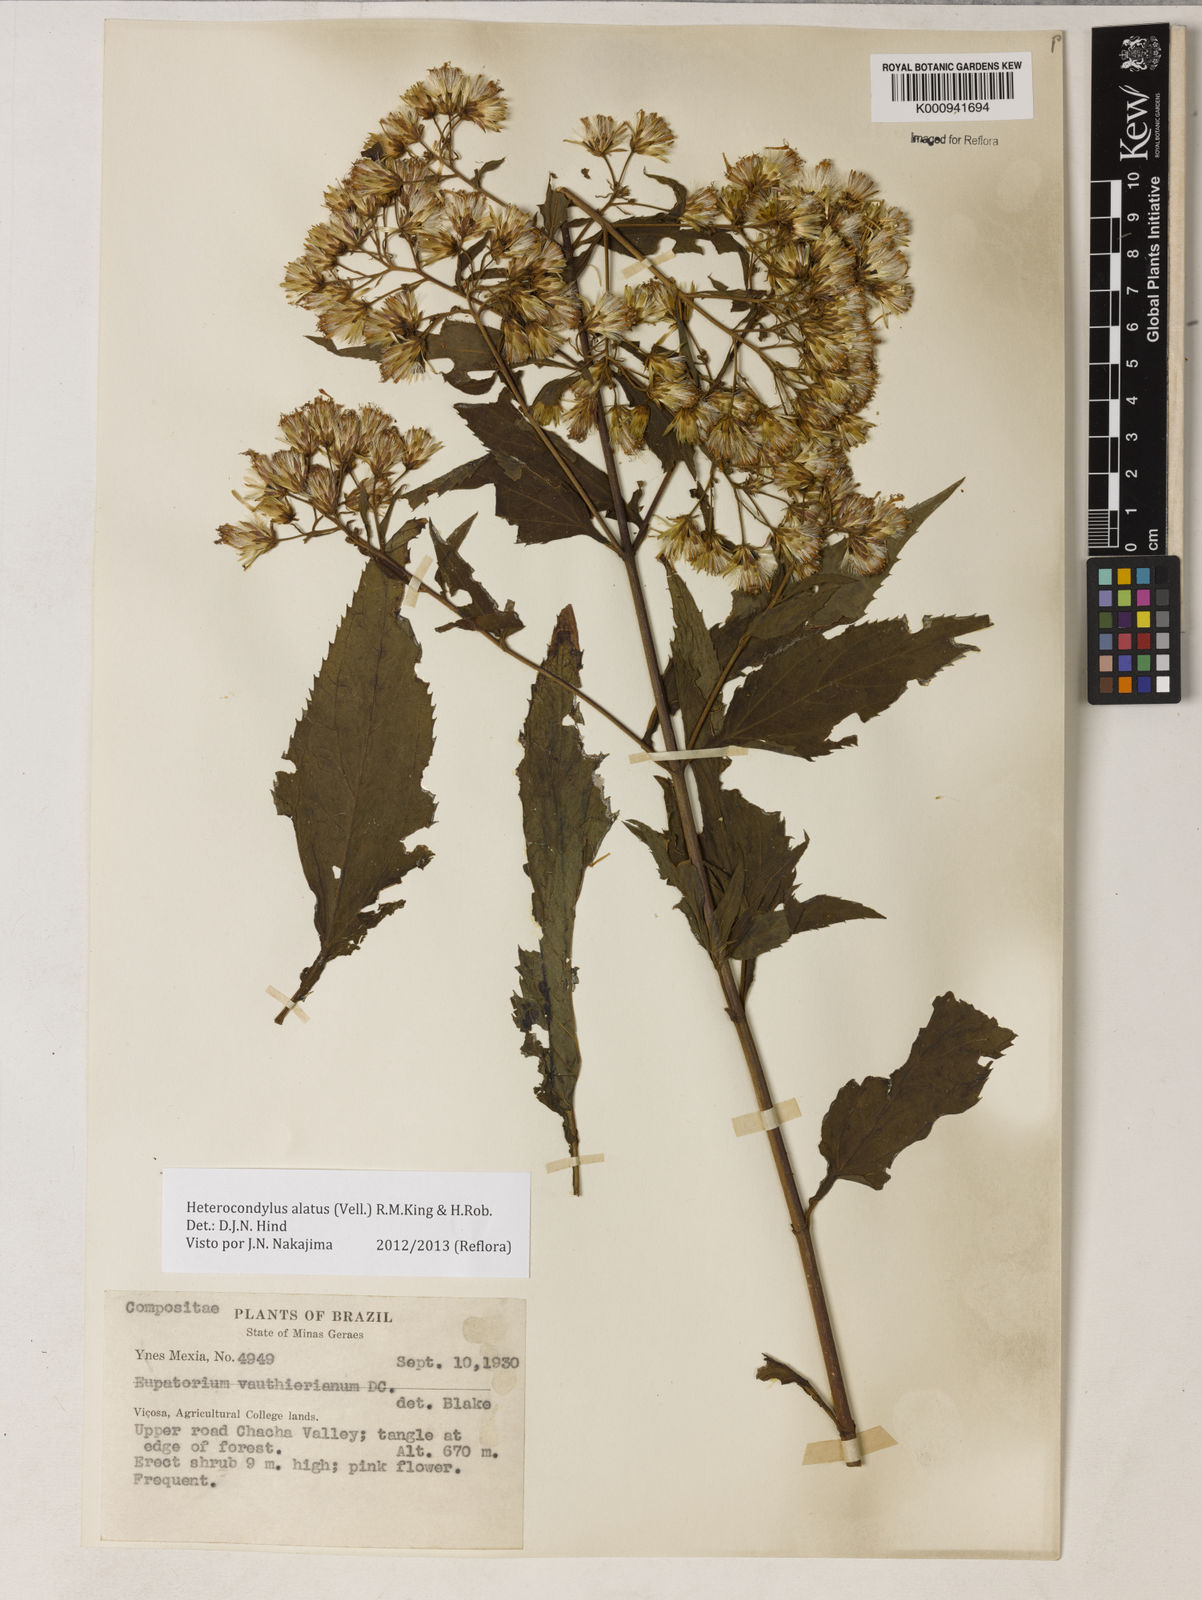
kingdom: Plantae
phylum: Tracheophyta
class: Magnoliopsida
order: Asterales
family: Asteraceae
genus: Heterocondylus
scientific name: Heterocondylus alatus
